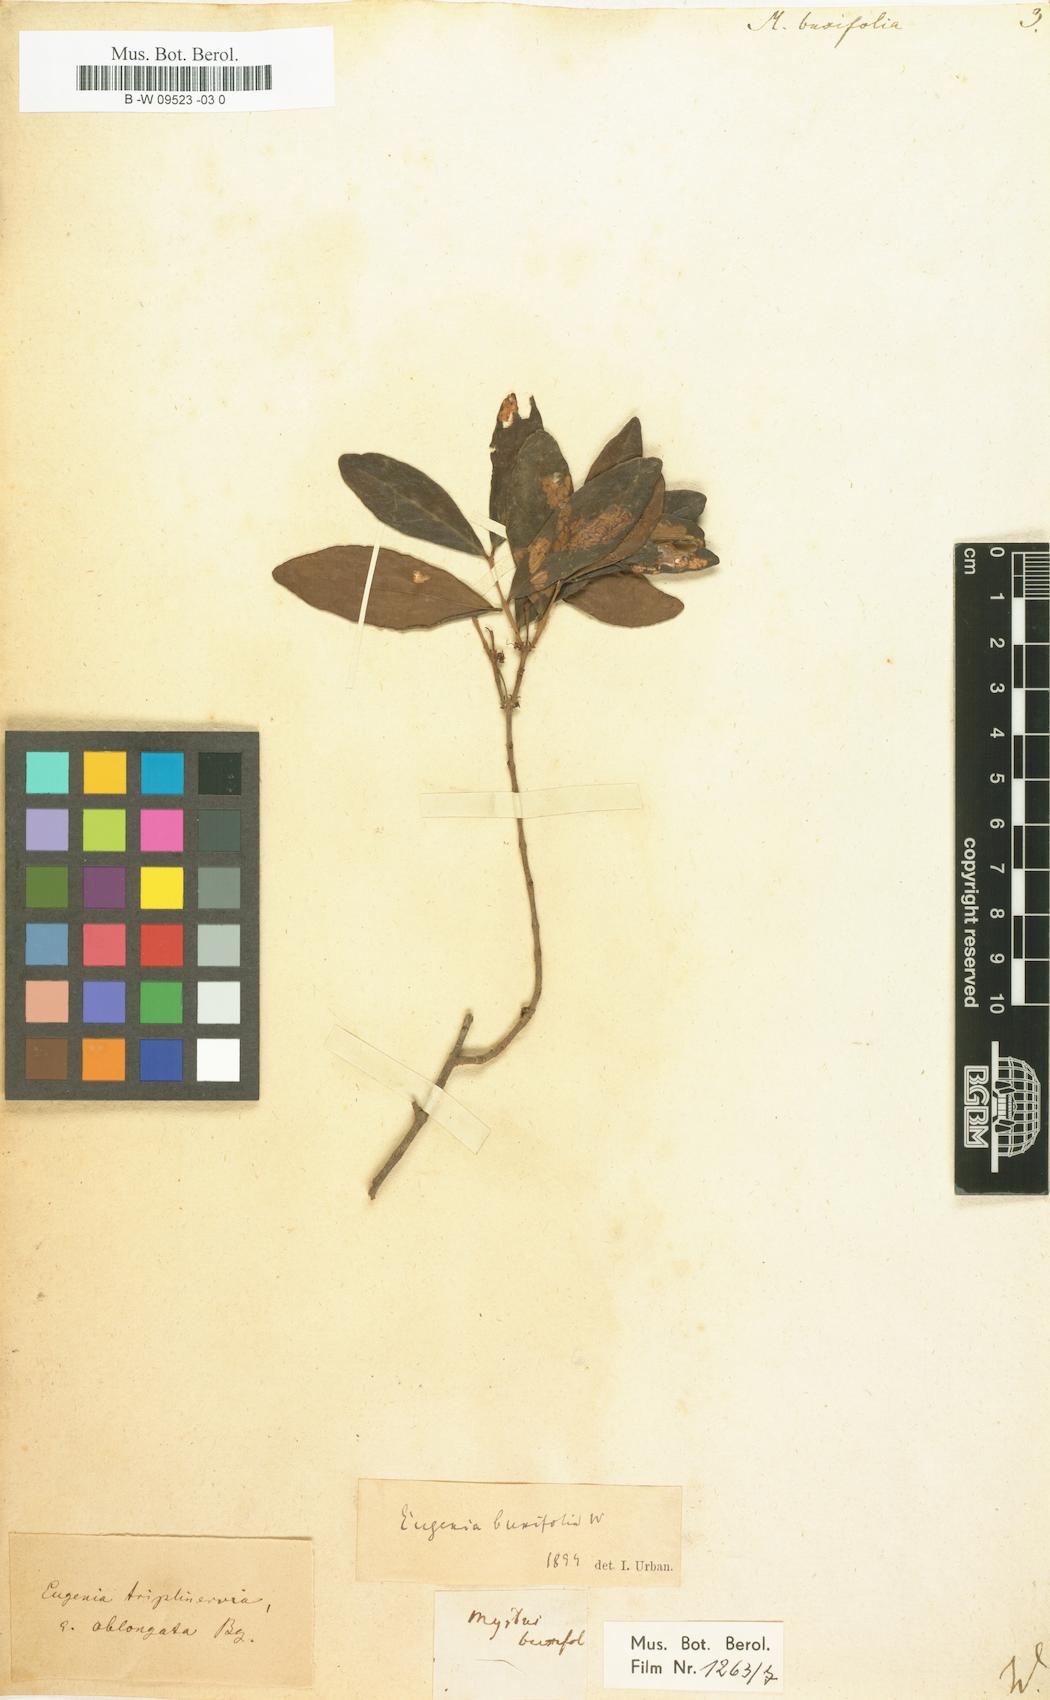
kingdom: Plantae
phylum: Tracheophyta
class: Magnoliopsida
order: Myrtales
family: Myrtaceae
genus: Eugenia
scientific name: Eugenia buxifolia
